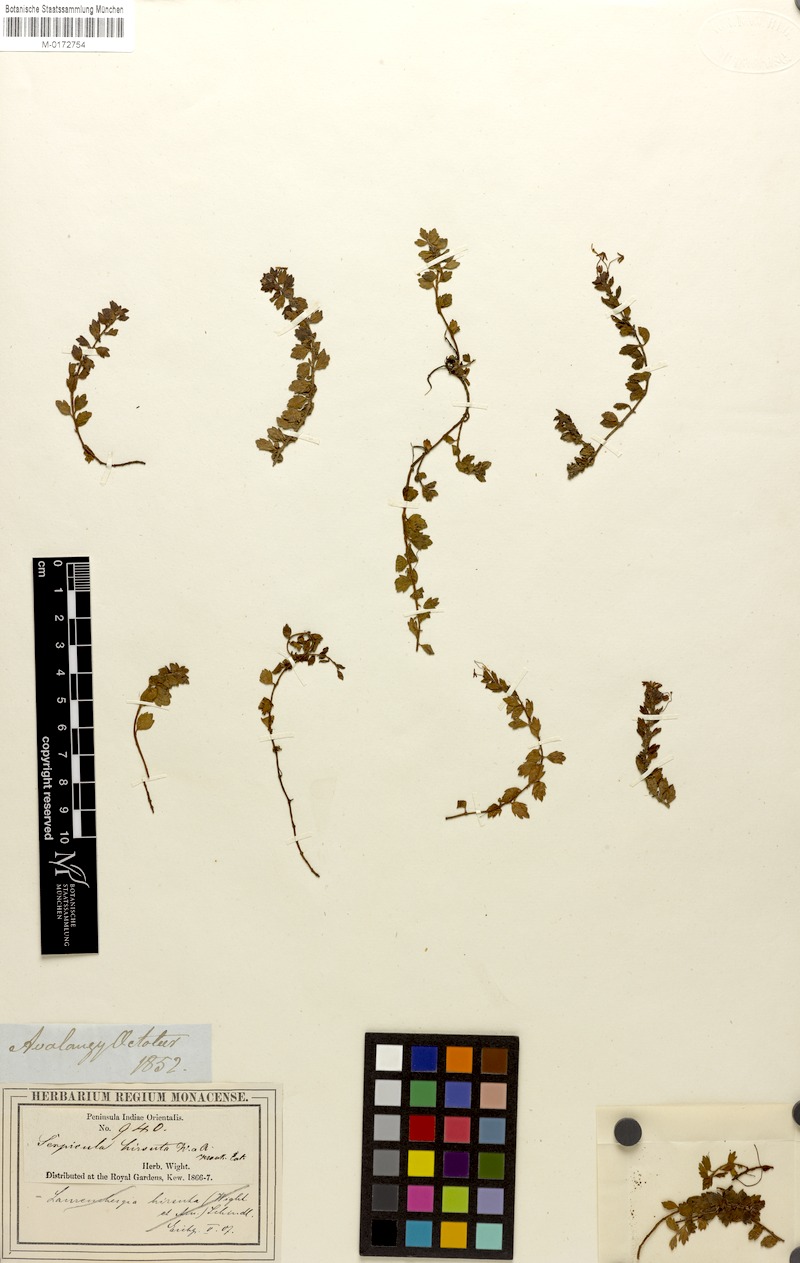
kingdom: Plantae
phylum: Tracheophyta
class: Magnoliopsida
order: Saxifragales
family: Haloragaceae
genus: Laurembergia
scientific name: Laurembergia coccinea
